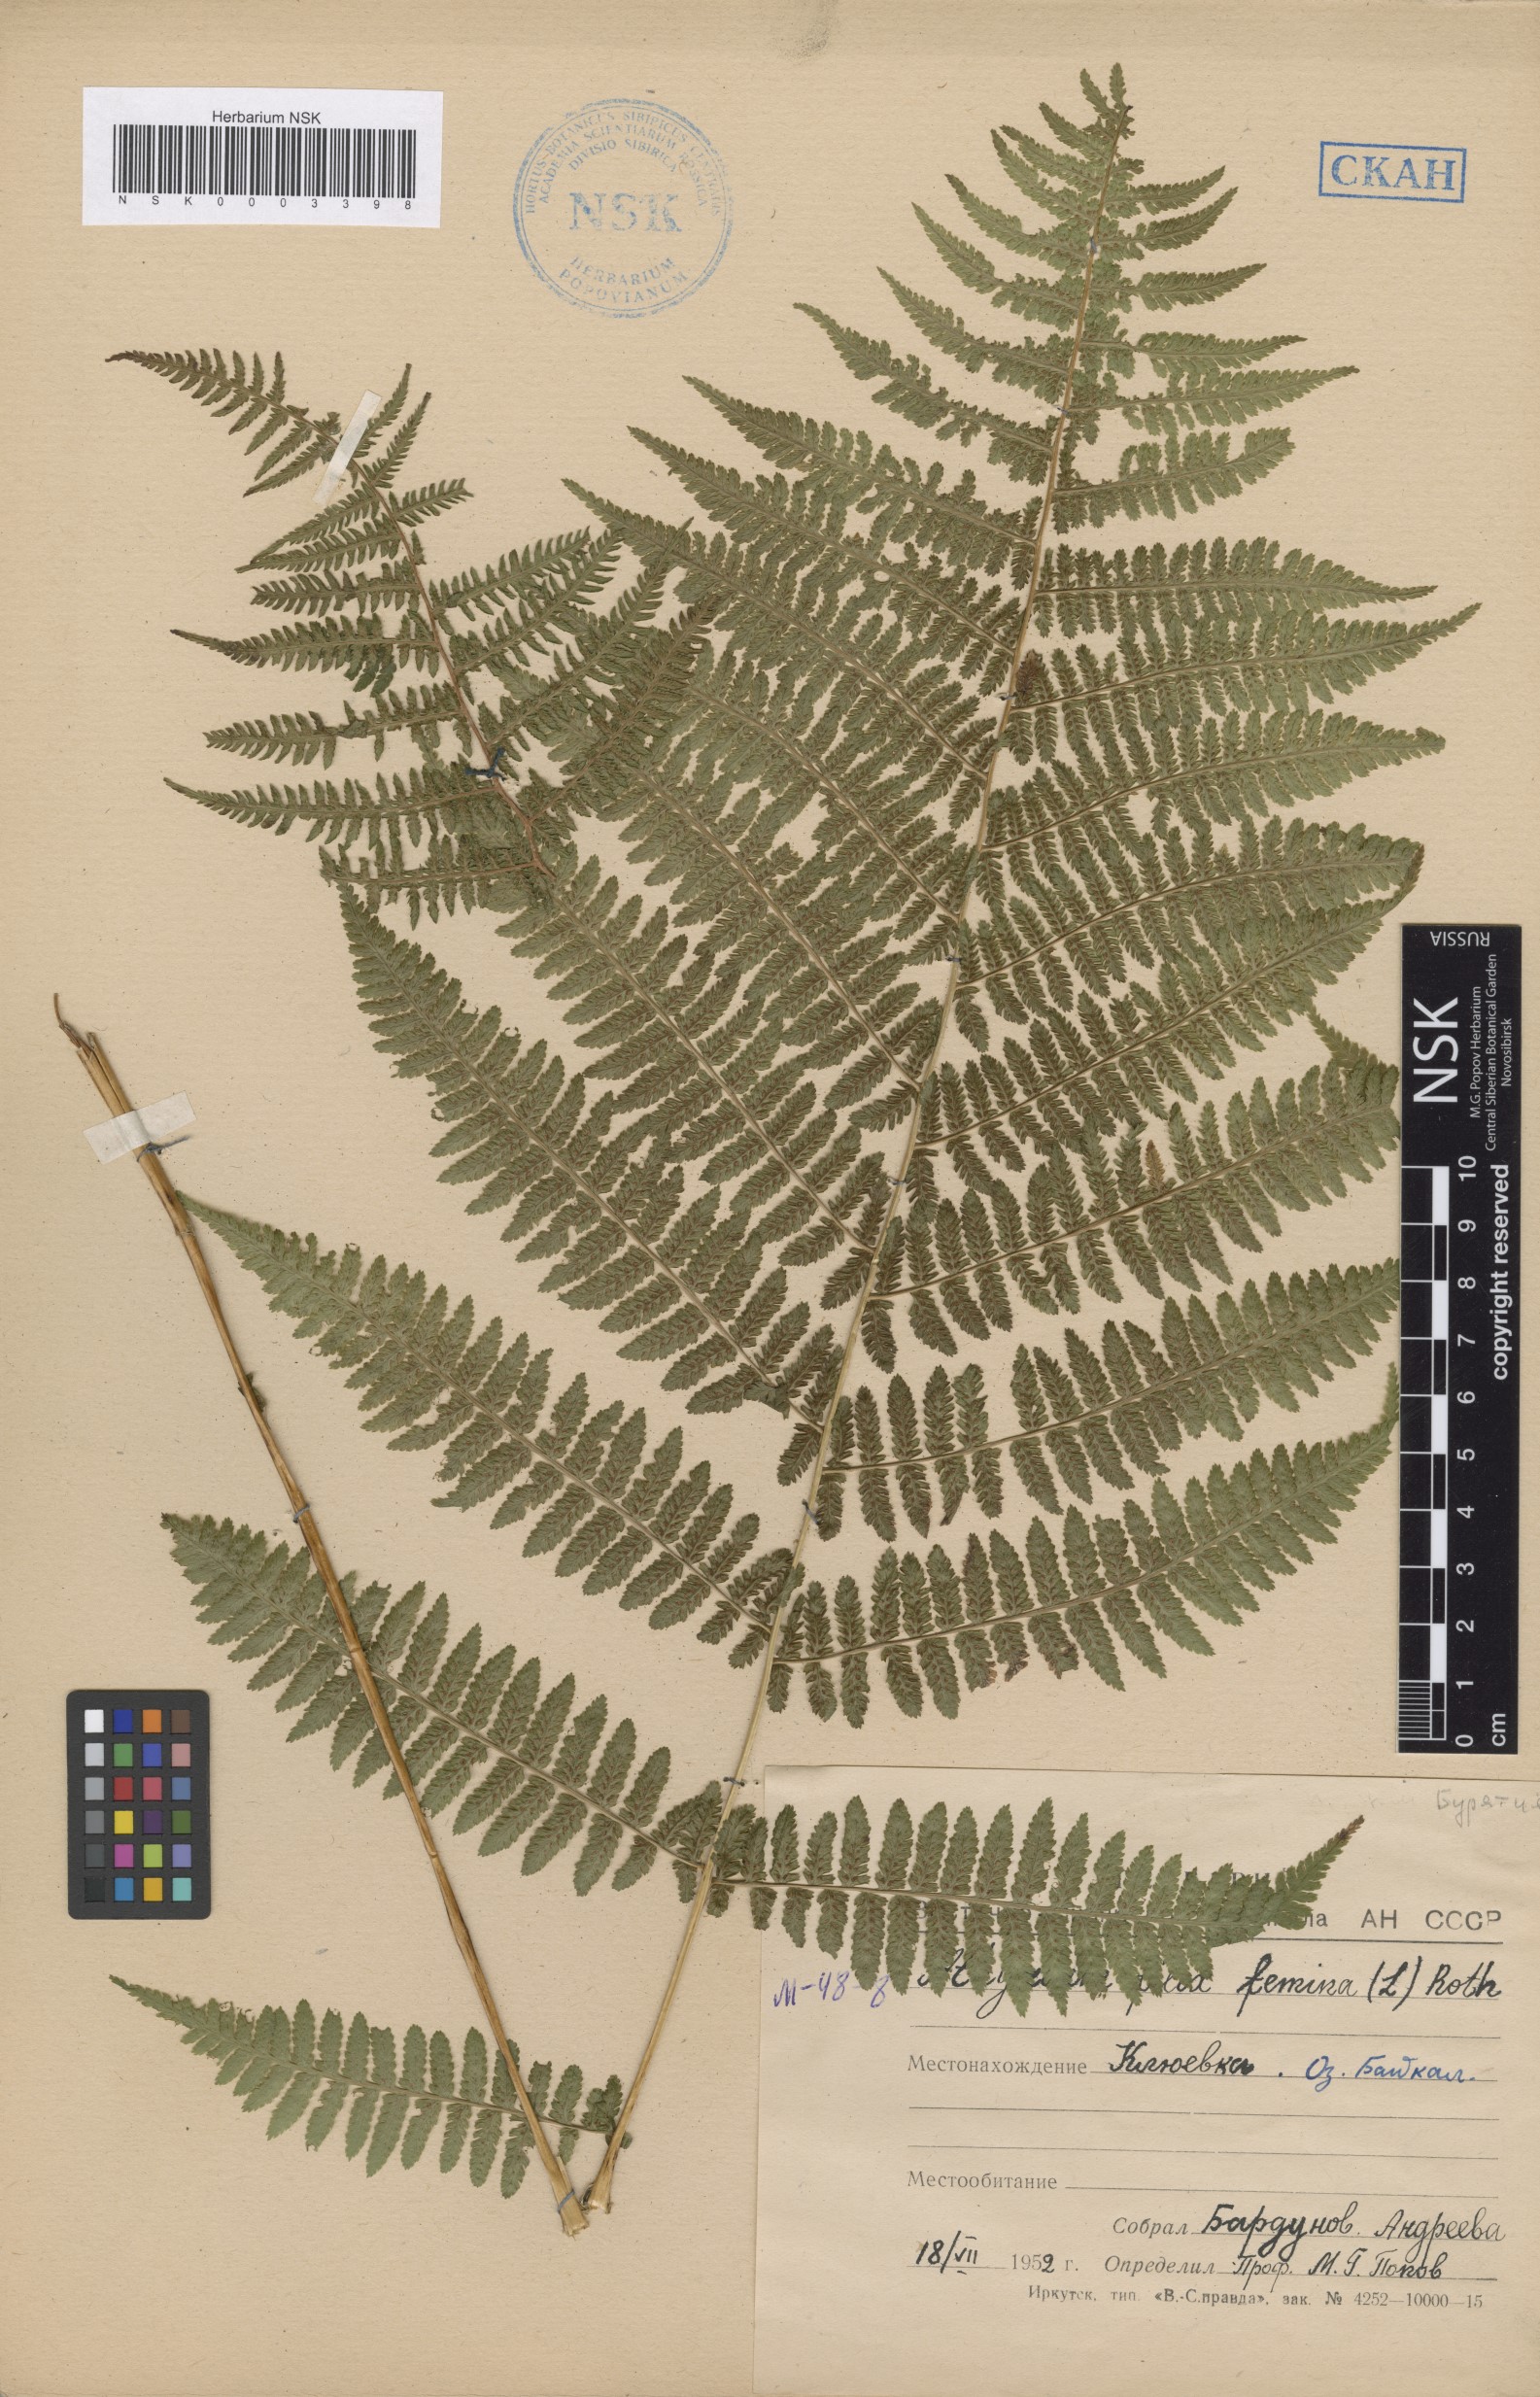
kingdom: Plantae
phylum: Tracheophyta
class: Polypodiopsida
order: Polypodiales
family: Athyriaceae
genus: Athyrium
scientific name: Athyrium filix-femina
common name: Lady fern
